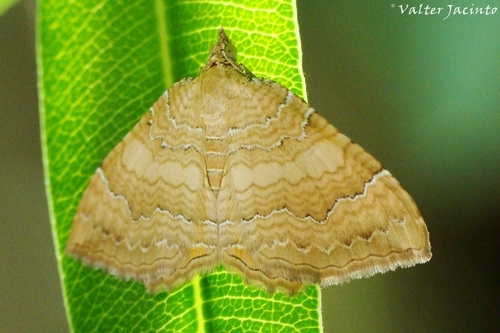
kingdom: Animalia
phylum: Arthropoda
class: Insecta
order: Lepidoptera
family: Geometridae
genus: Camptogramma
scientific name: Camptogramma bilineata
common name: Yellow shell
